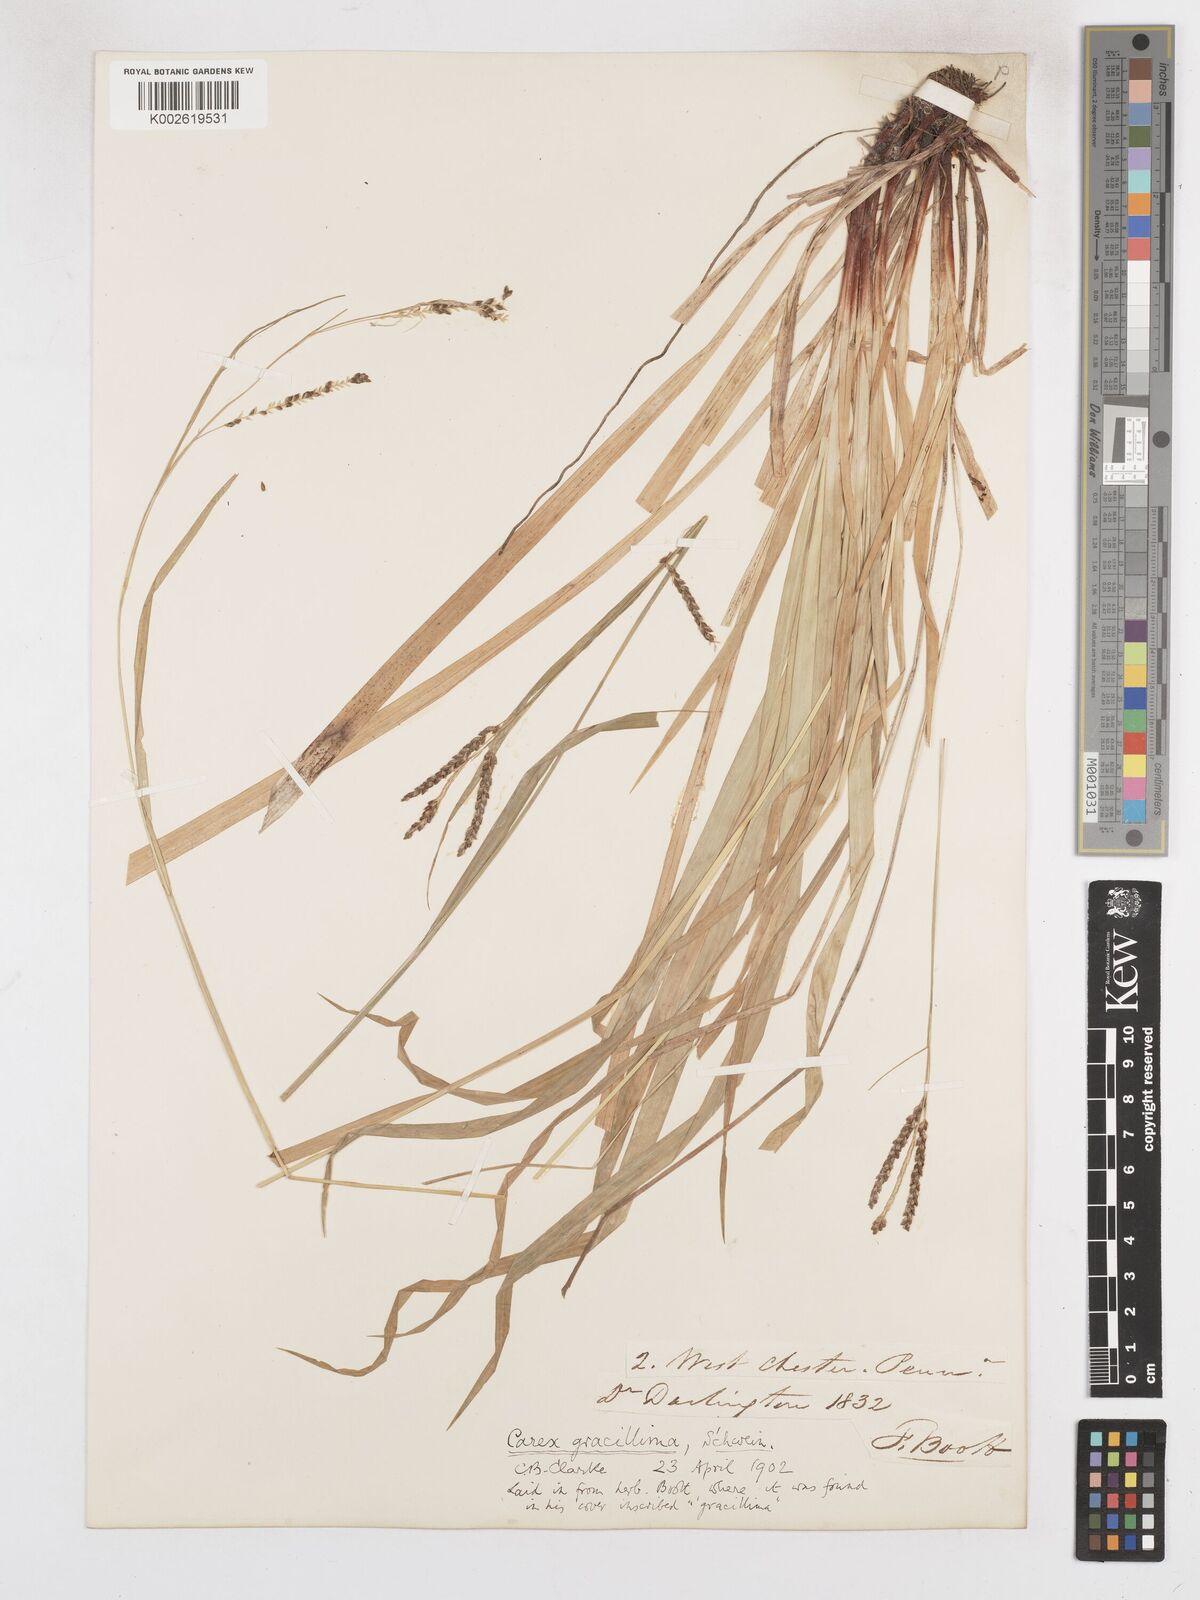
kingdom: Plantae
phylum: Tracheophyta
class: Liliopsida
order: Poales
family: Cyperaceae
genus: Carex
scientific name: Carex gracillima
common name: Graceful sedge
